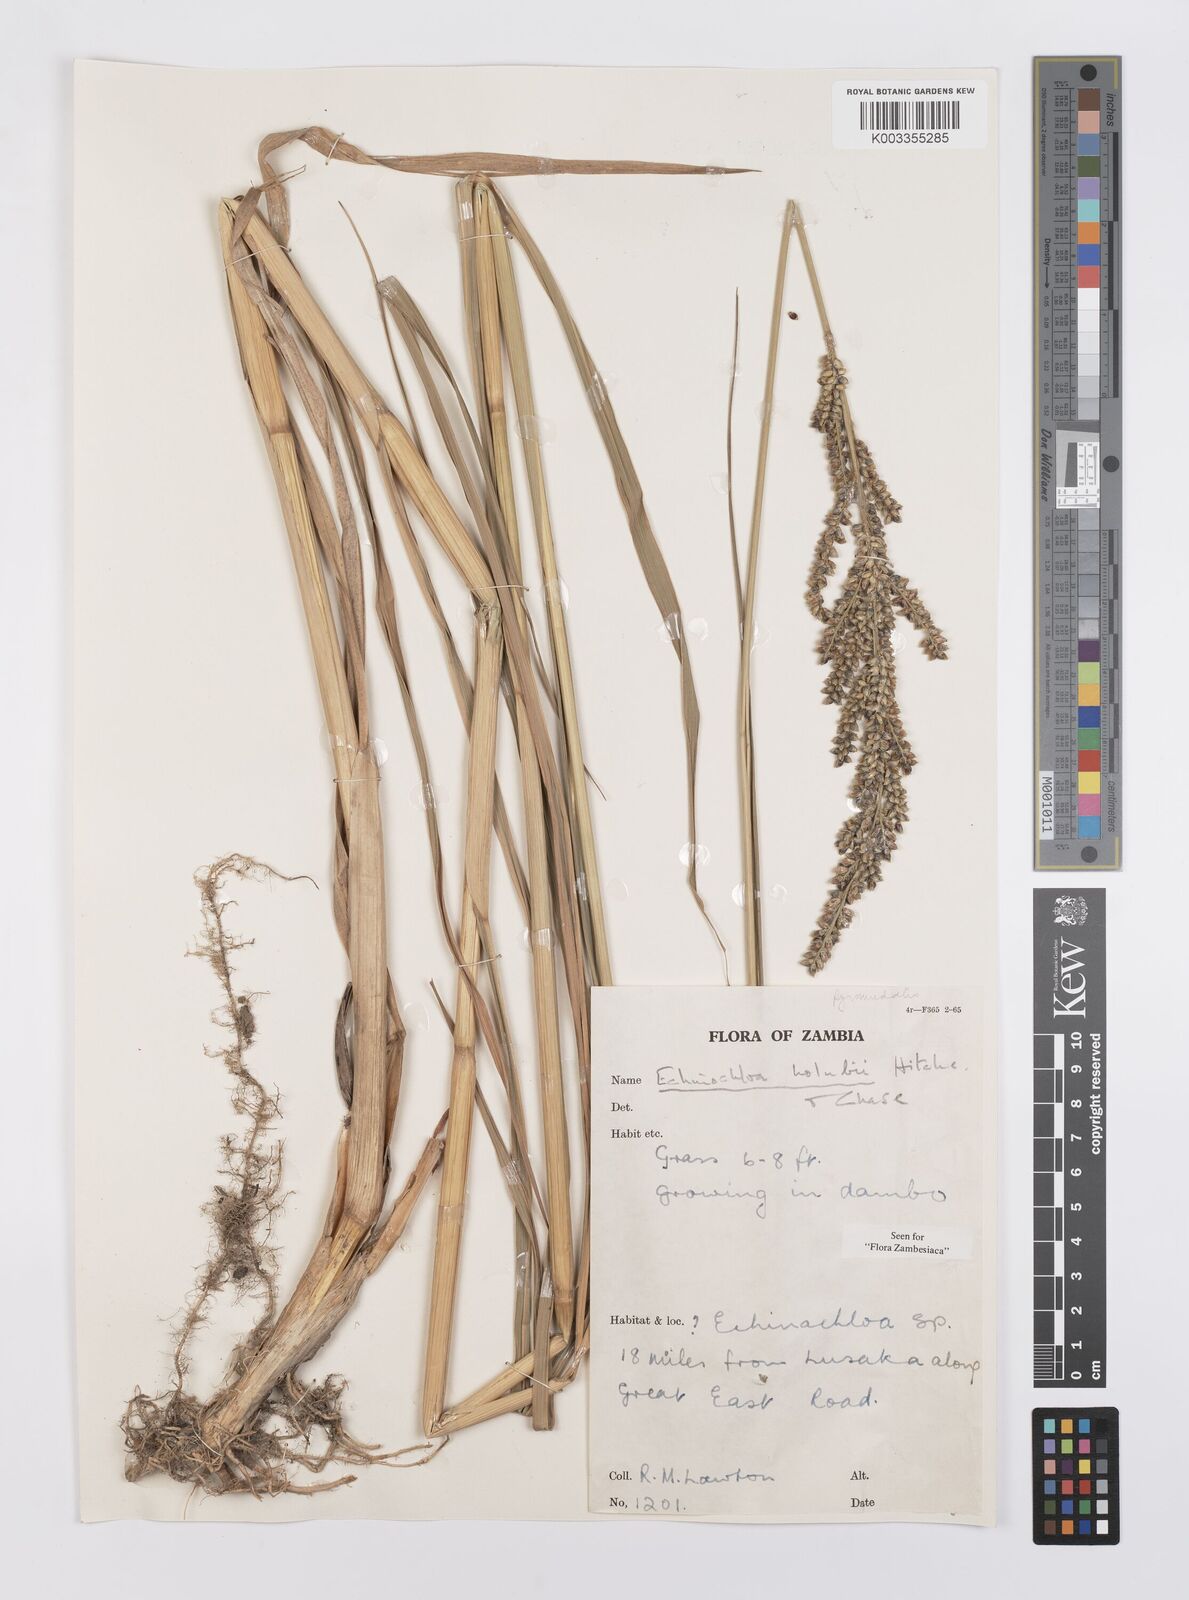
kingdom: Plantae
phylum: Tracheophyta
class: Liliopsida
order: Poales
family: Poaceae
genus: Echinochloa
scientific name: Echinochloa pyramidalis
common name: Antelope grass
